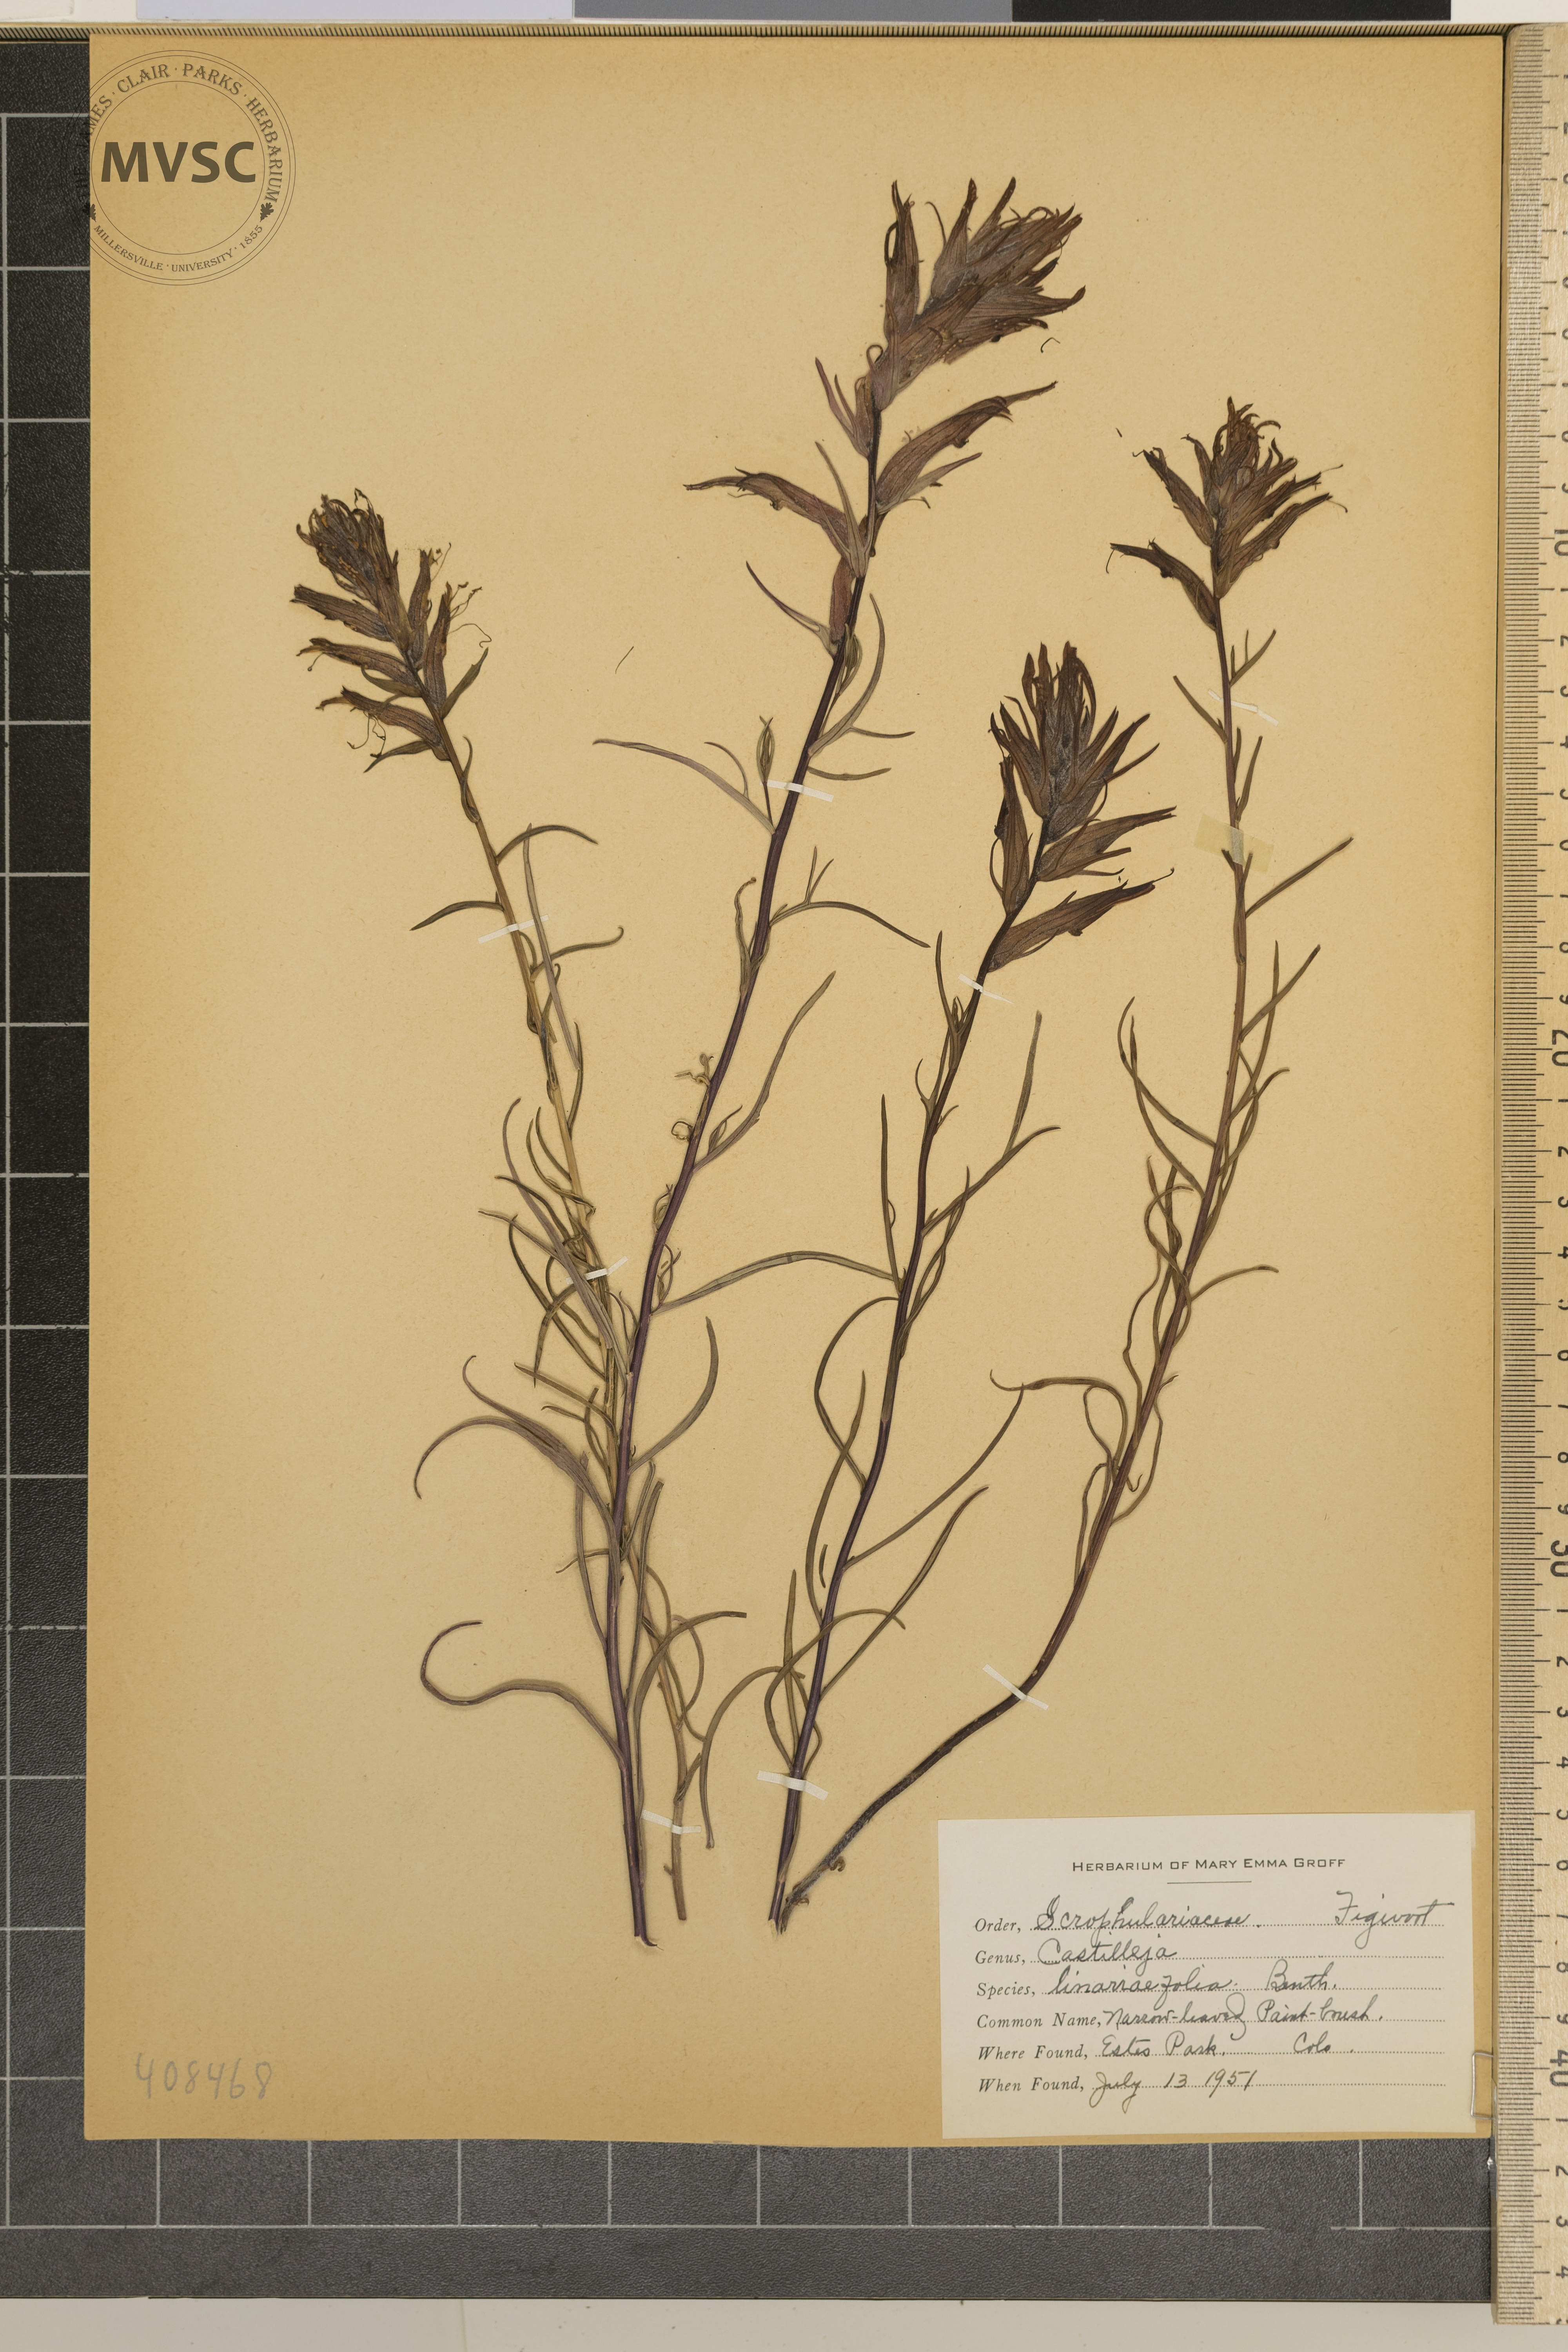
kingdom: Plantae
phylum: Tracheophyta
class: Magnoliopsida
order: Lamiales
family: Orobanchaceae
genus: Castilleja
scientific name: Castilleja linariifolia
